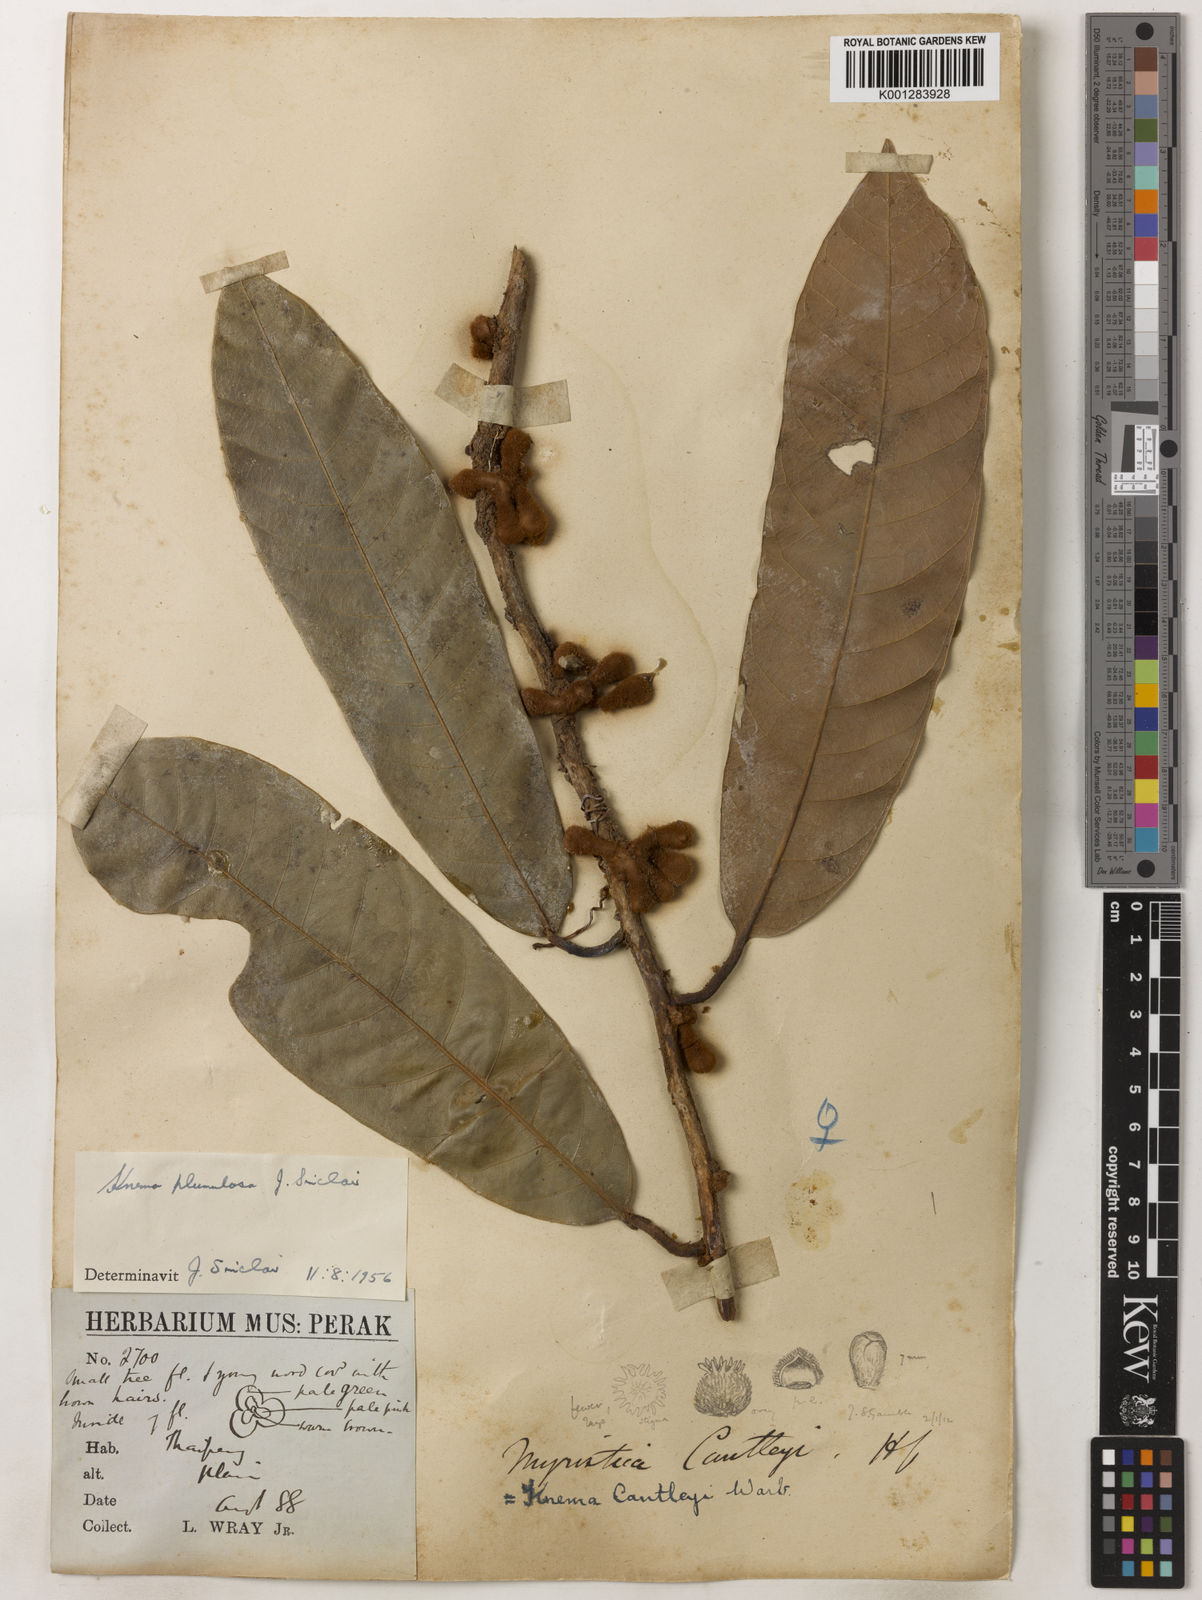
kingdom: Plantae
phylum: Tracheophyta
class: Magnoliopsida
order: Magnoliales
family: Myristicaceae
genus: Knema
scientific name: Knema plumulosa
